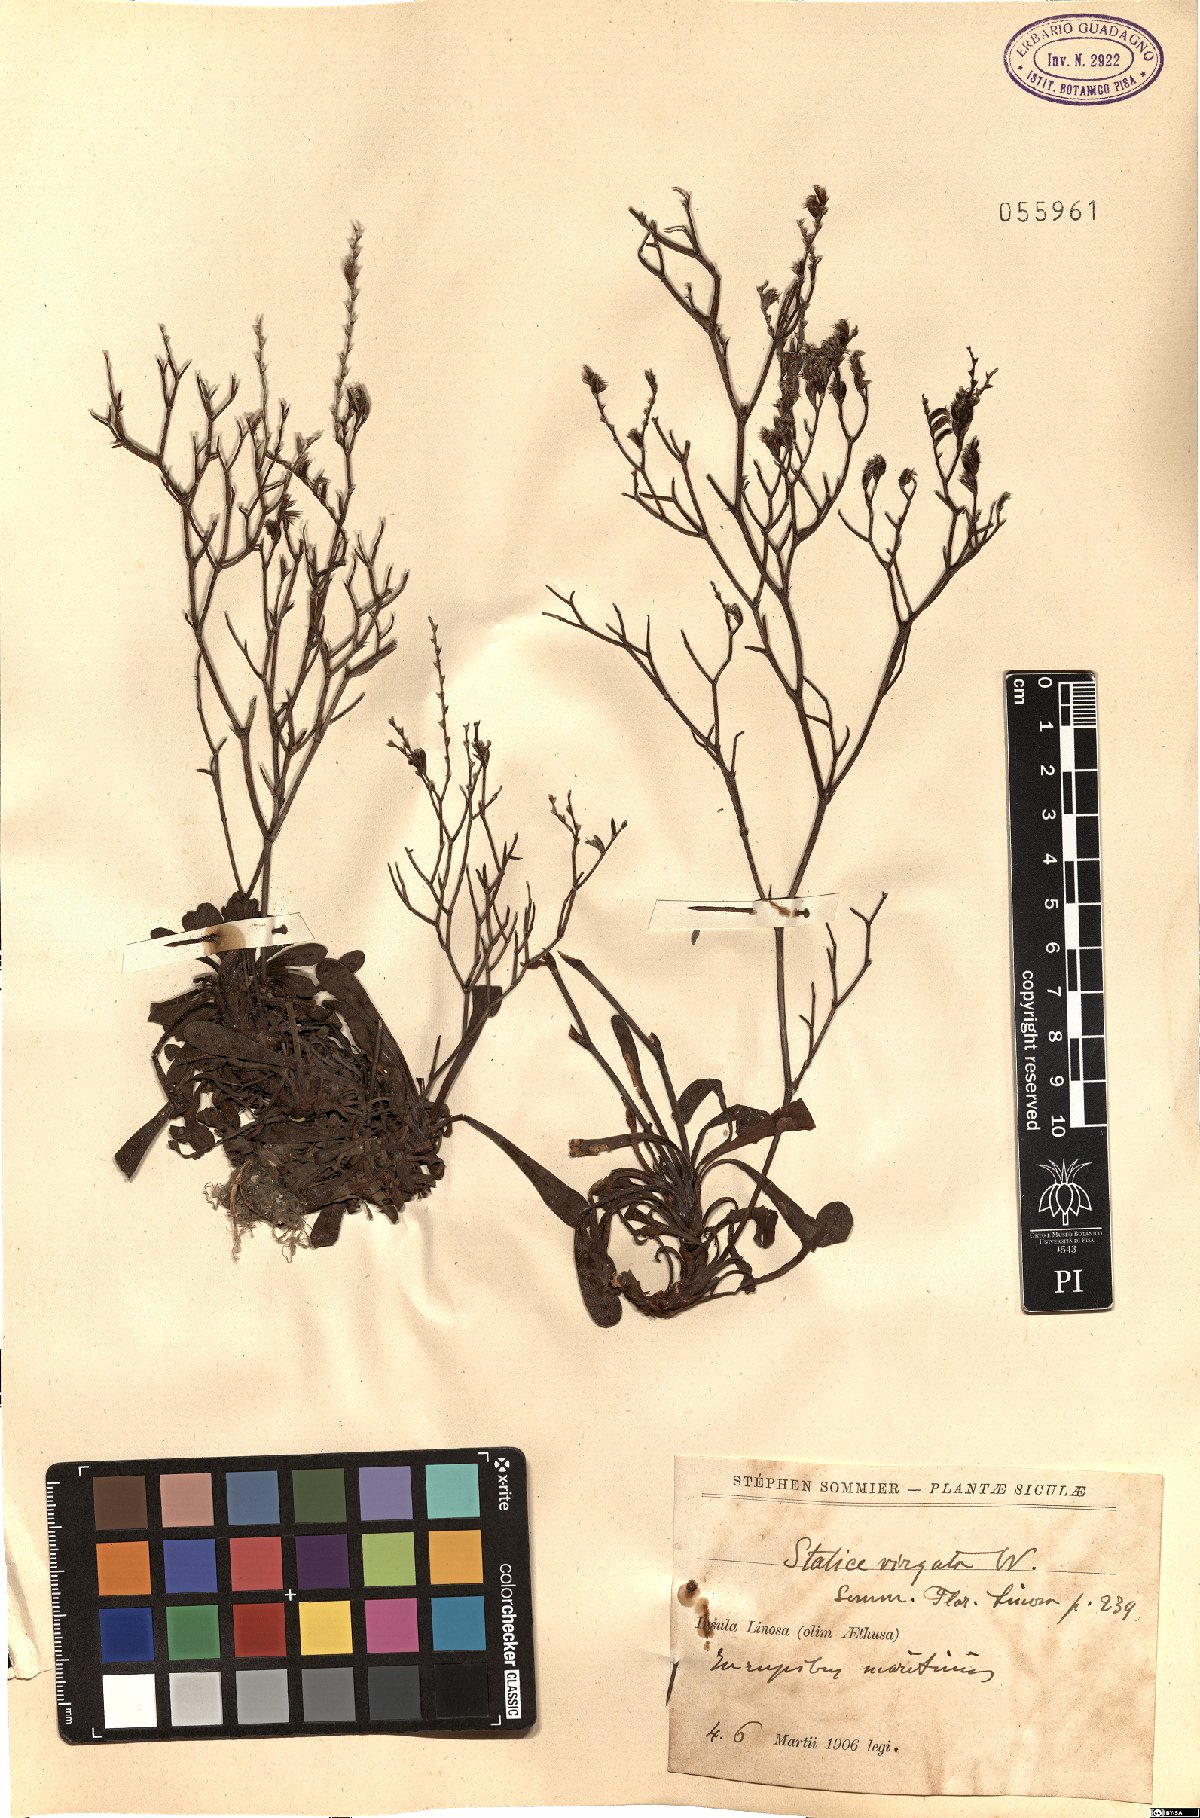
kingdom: Plantae
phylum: Tracheophyta
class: Magnoliopsida
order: Caryophyllales
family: Plumbaginaceae
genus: Limonium
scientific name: Limonium virgatum
